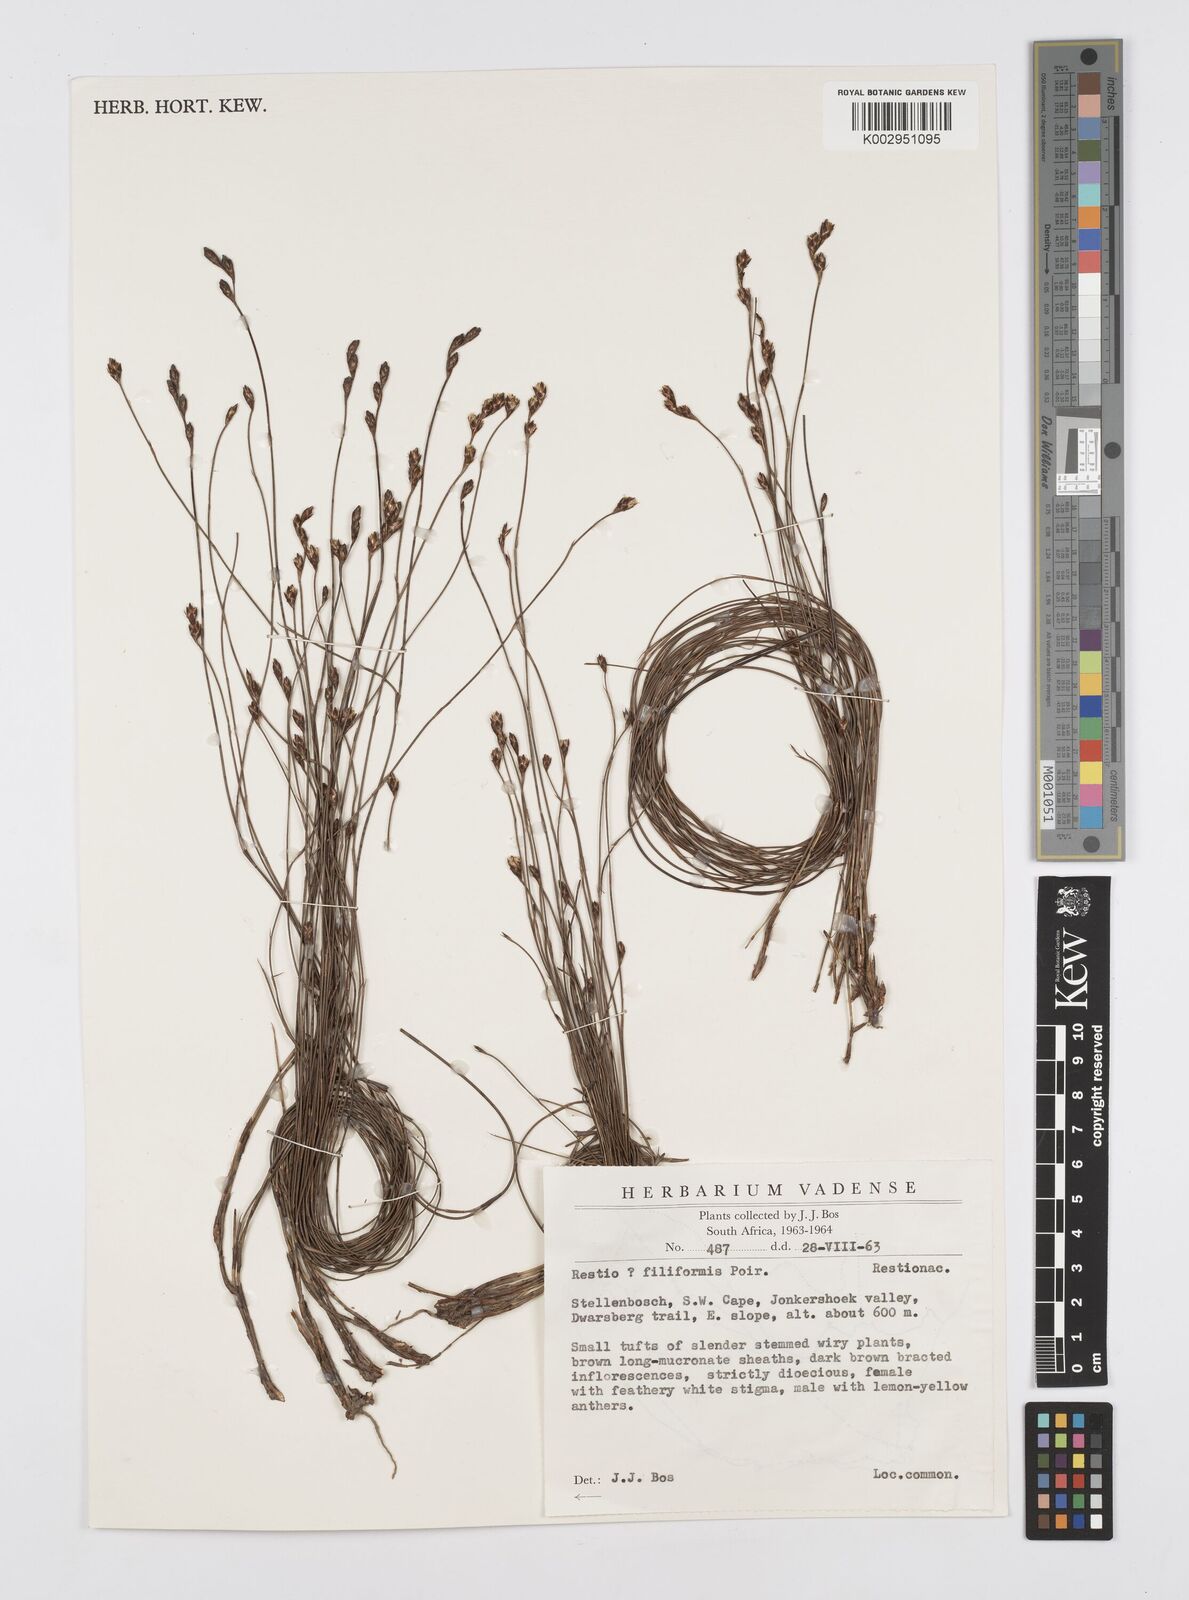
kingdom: Plantae
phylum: Tracheophyta
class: Liliopsida
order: Poales
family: Restionaceae
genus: Restio
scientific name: Restio filiformis
